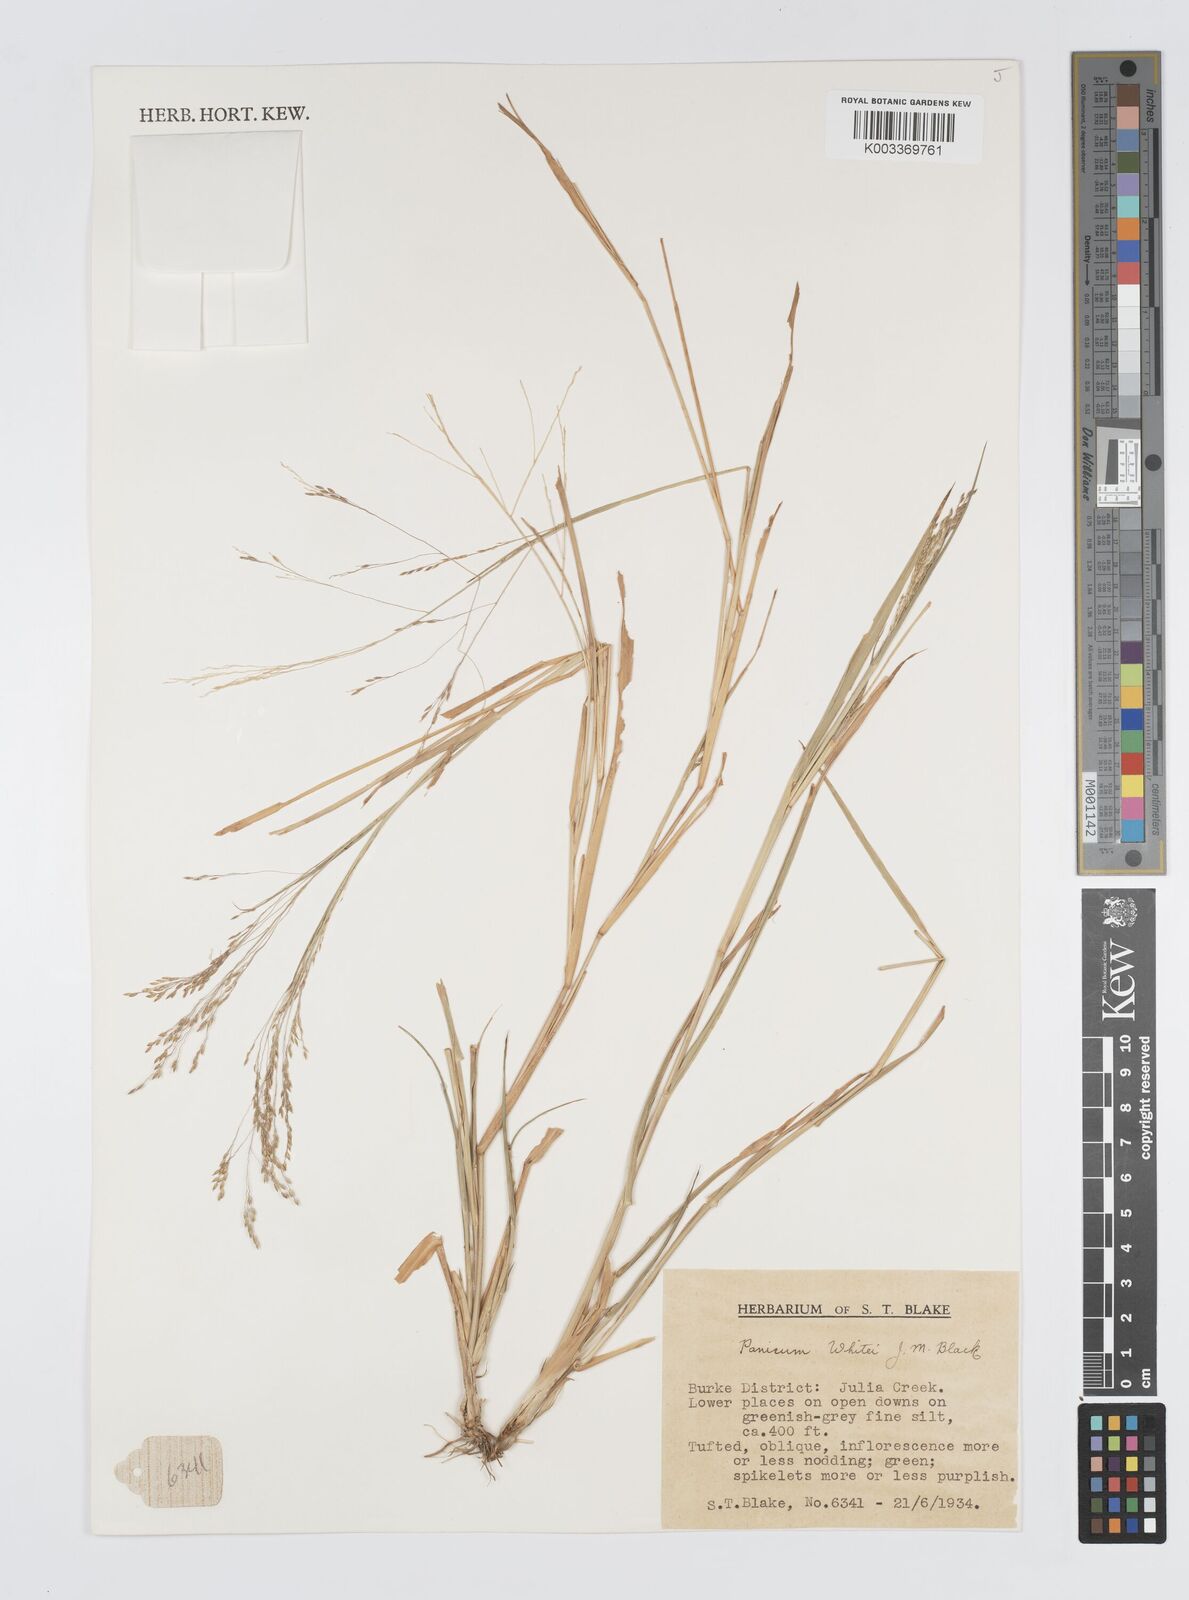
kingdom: Plantae
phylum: Tracheophyta
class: Liliopsida
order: Poales
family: Poaceae
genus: Panicum
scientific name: Panicum laevinode
